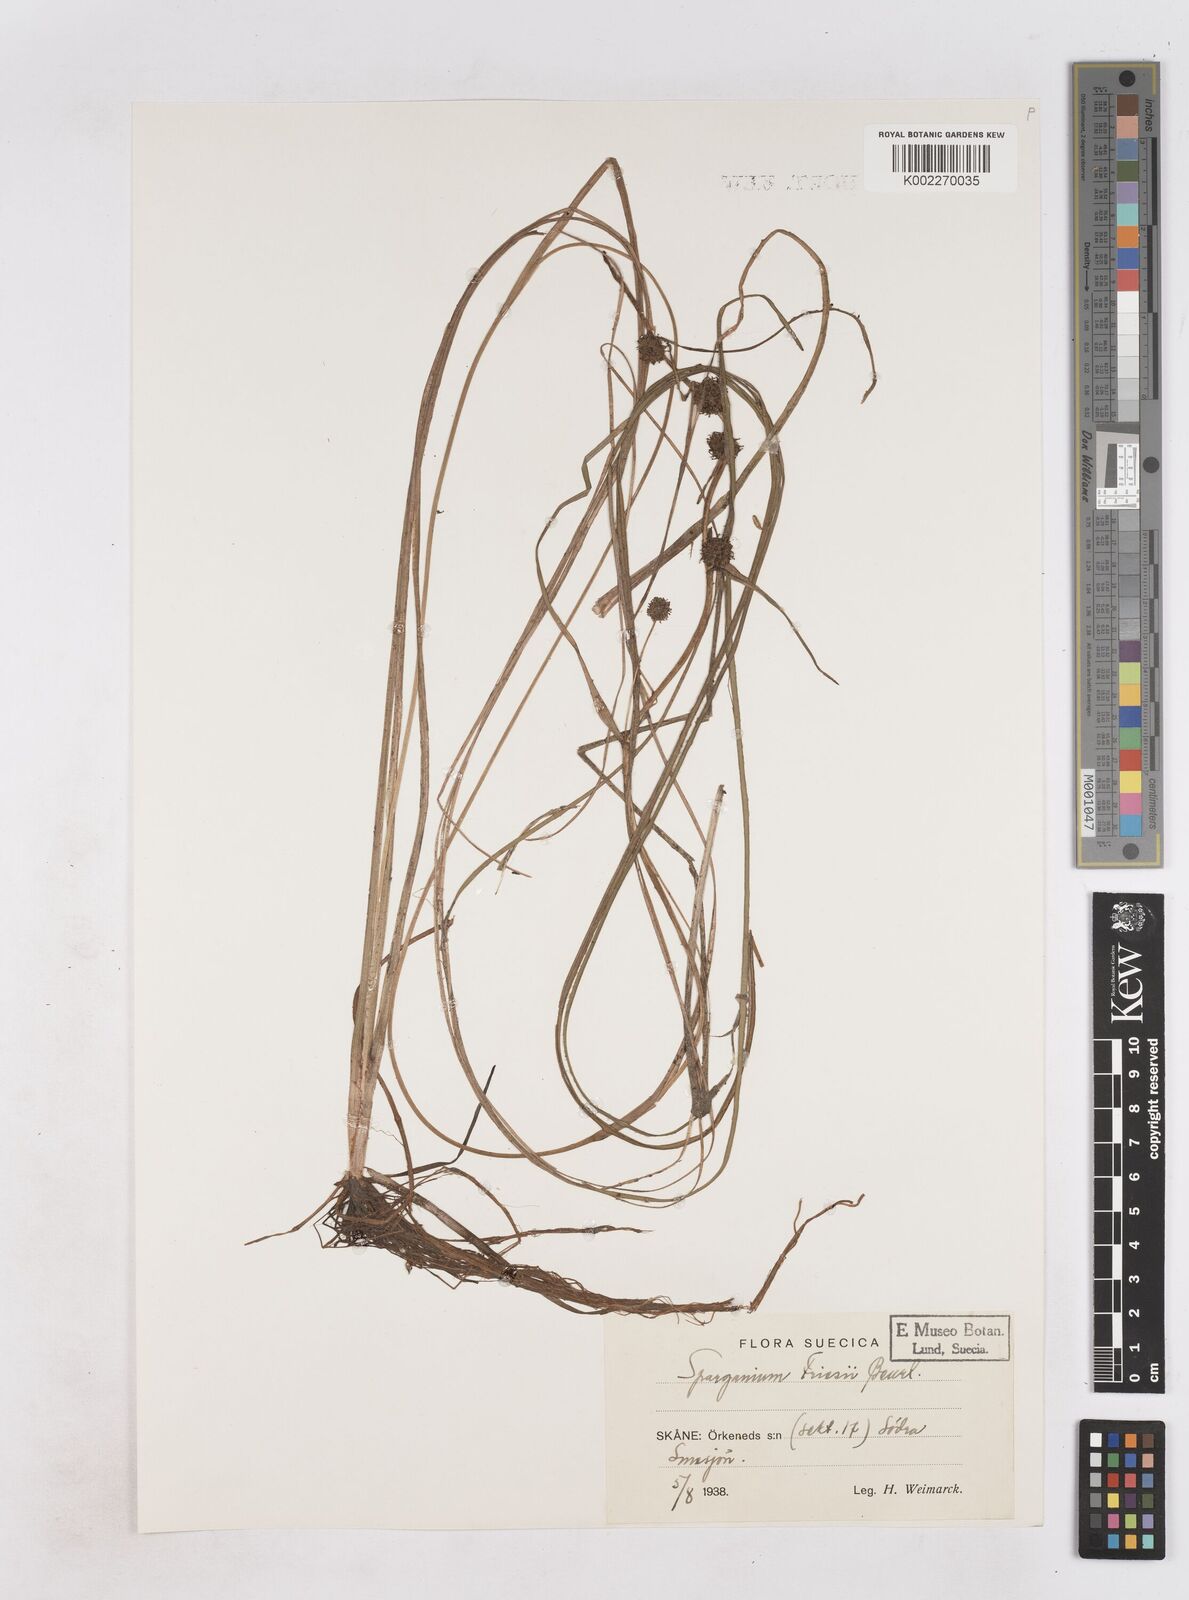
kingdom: Plantae
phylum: Tracheophyta
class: Liliopsida
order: Poales
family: Typhaceae
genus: Sparganium
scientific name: Sparganium gramineum
